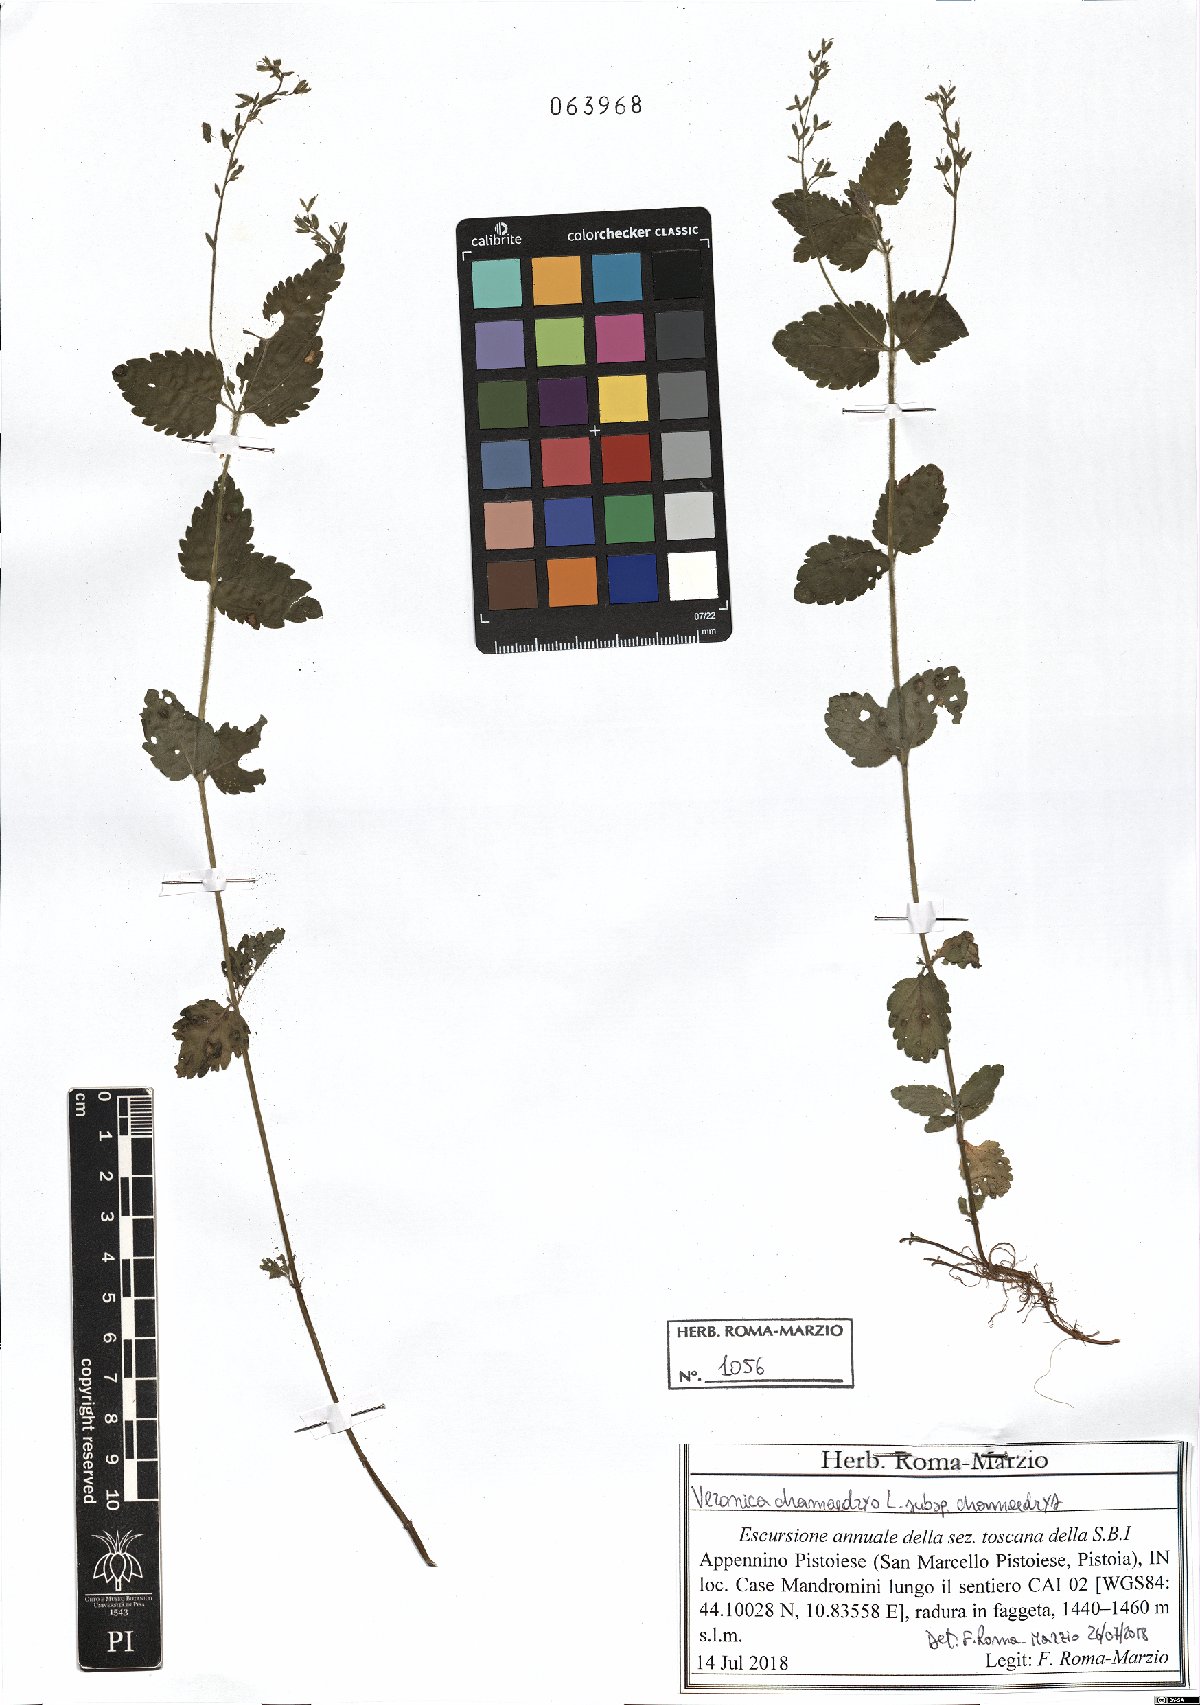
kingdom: Plantae
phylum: Tracheophyta
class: Magnoliopsida
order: Lamiales
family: Plantaginaceae
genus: Veronica
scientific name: Veronica chamaedrys
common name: Germander speedwell
